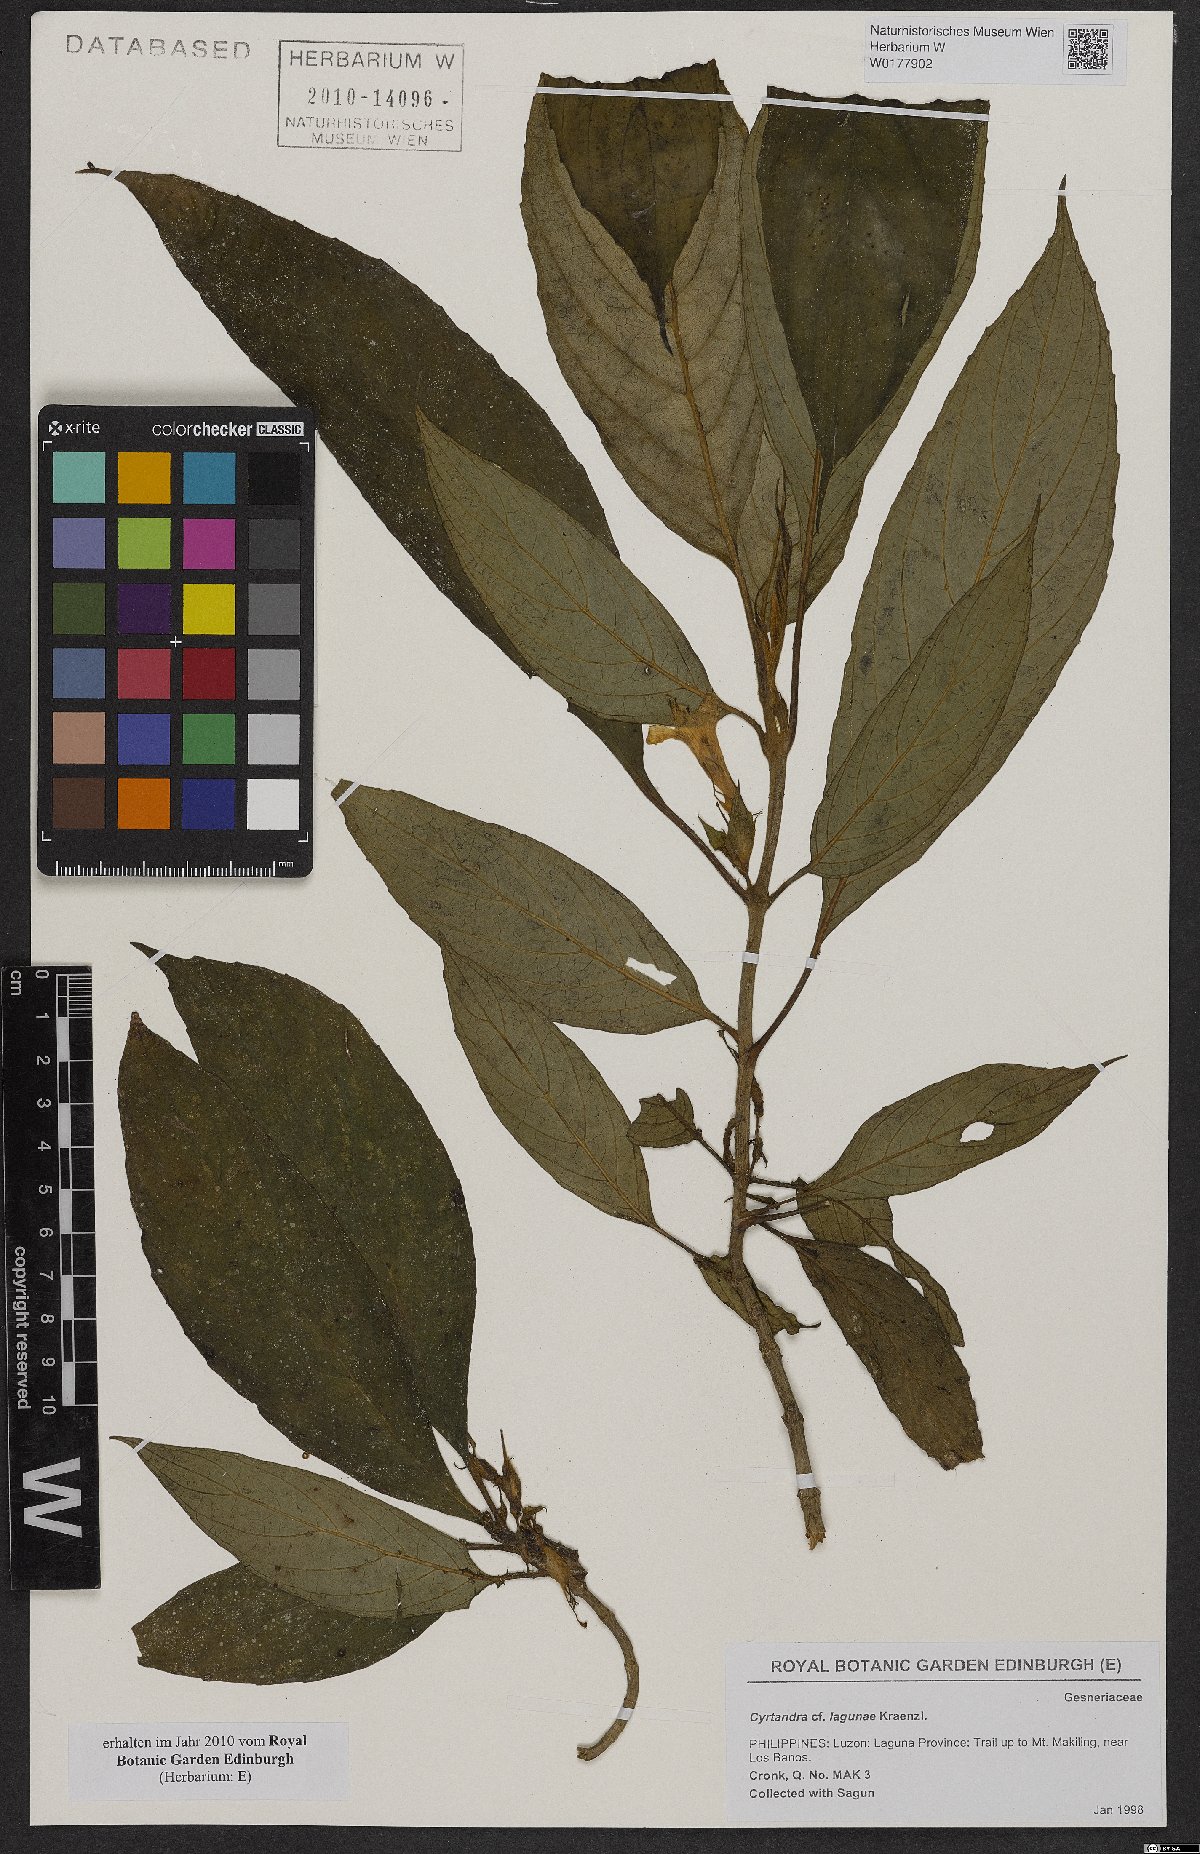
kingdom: Plantae
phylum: Tracheophyta
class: Magnoliopsida
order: Lamiales
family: Gesneriaceae
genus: Cyrtandra
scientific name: Cyrtandra lagunae
